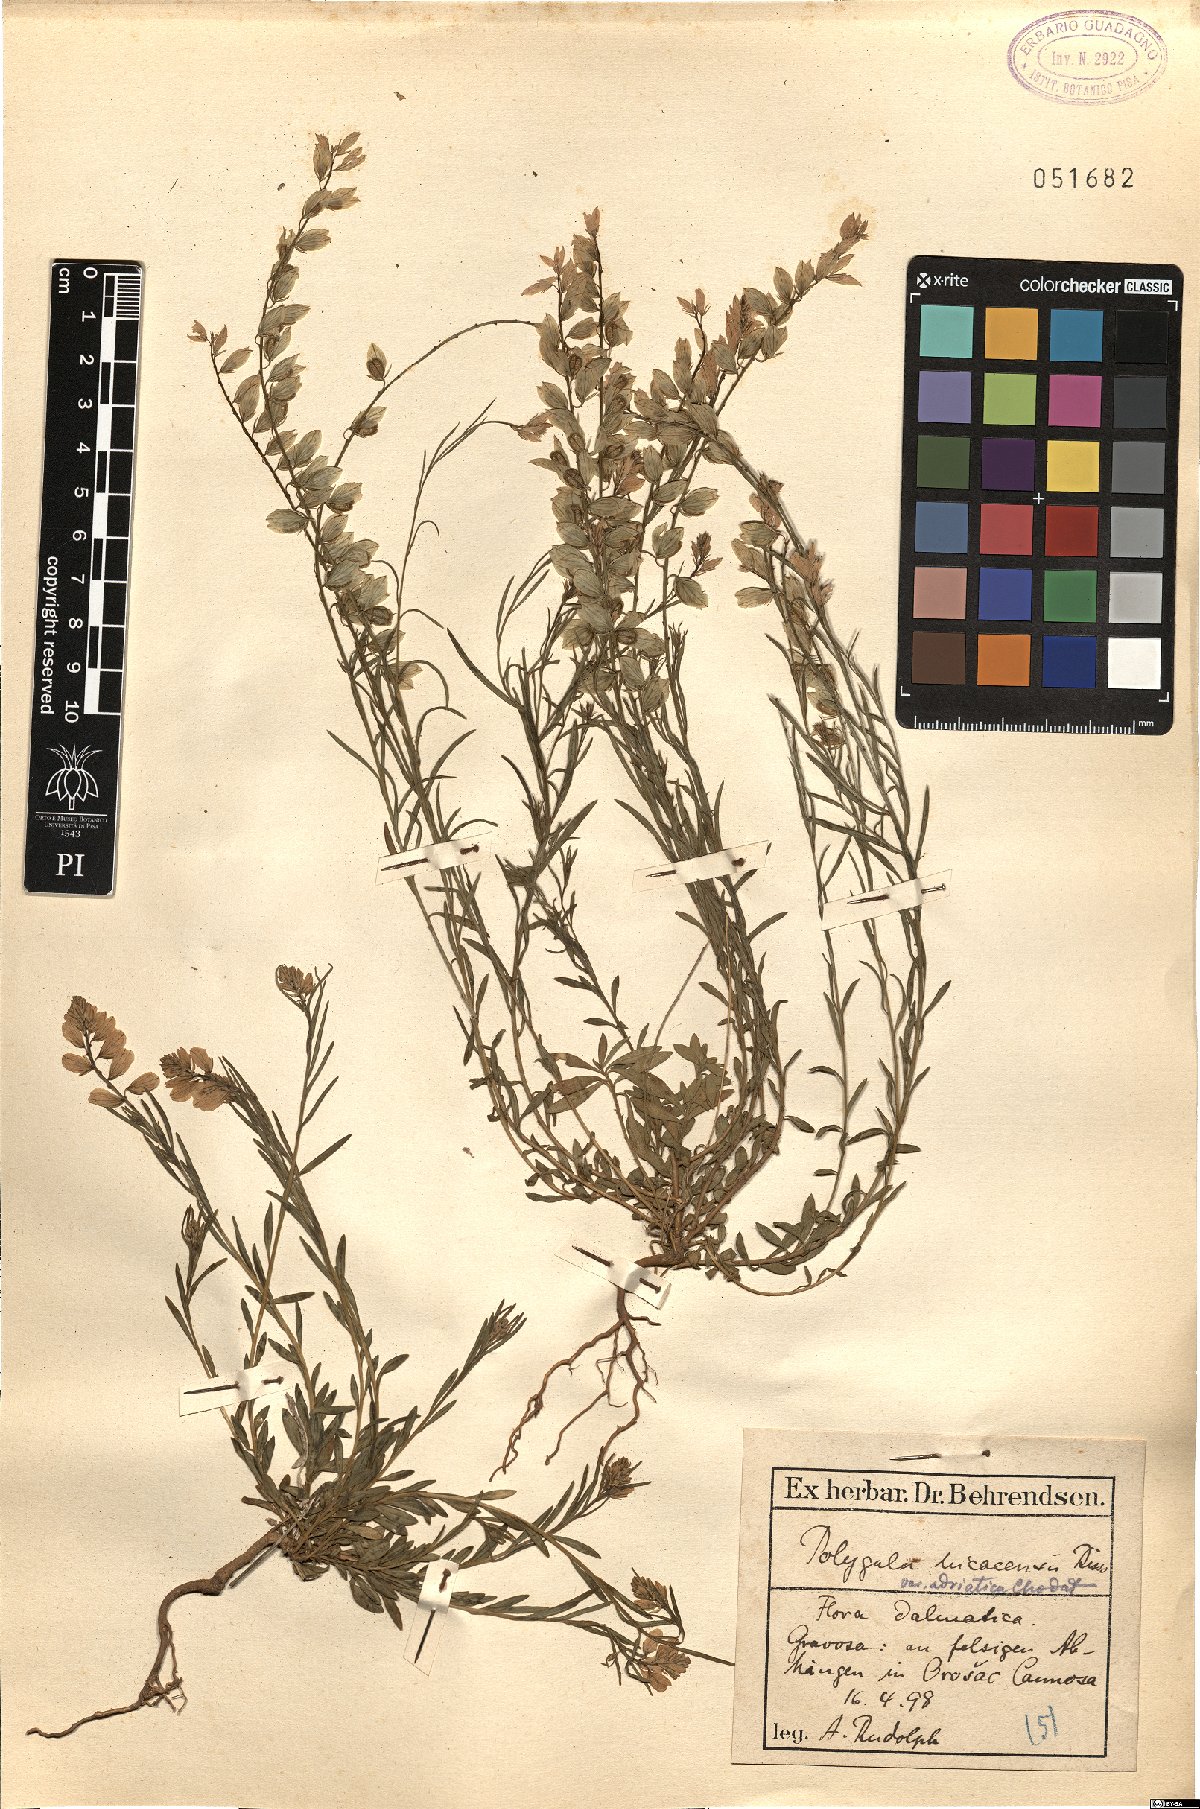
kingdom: Plantae
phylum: Tracheophyta
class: Magnoliopsida
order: Fabales
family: Polygalaceae
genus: Polygala
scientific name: Polygala forojulensis
